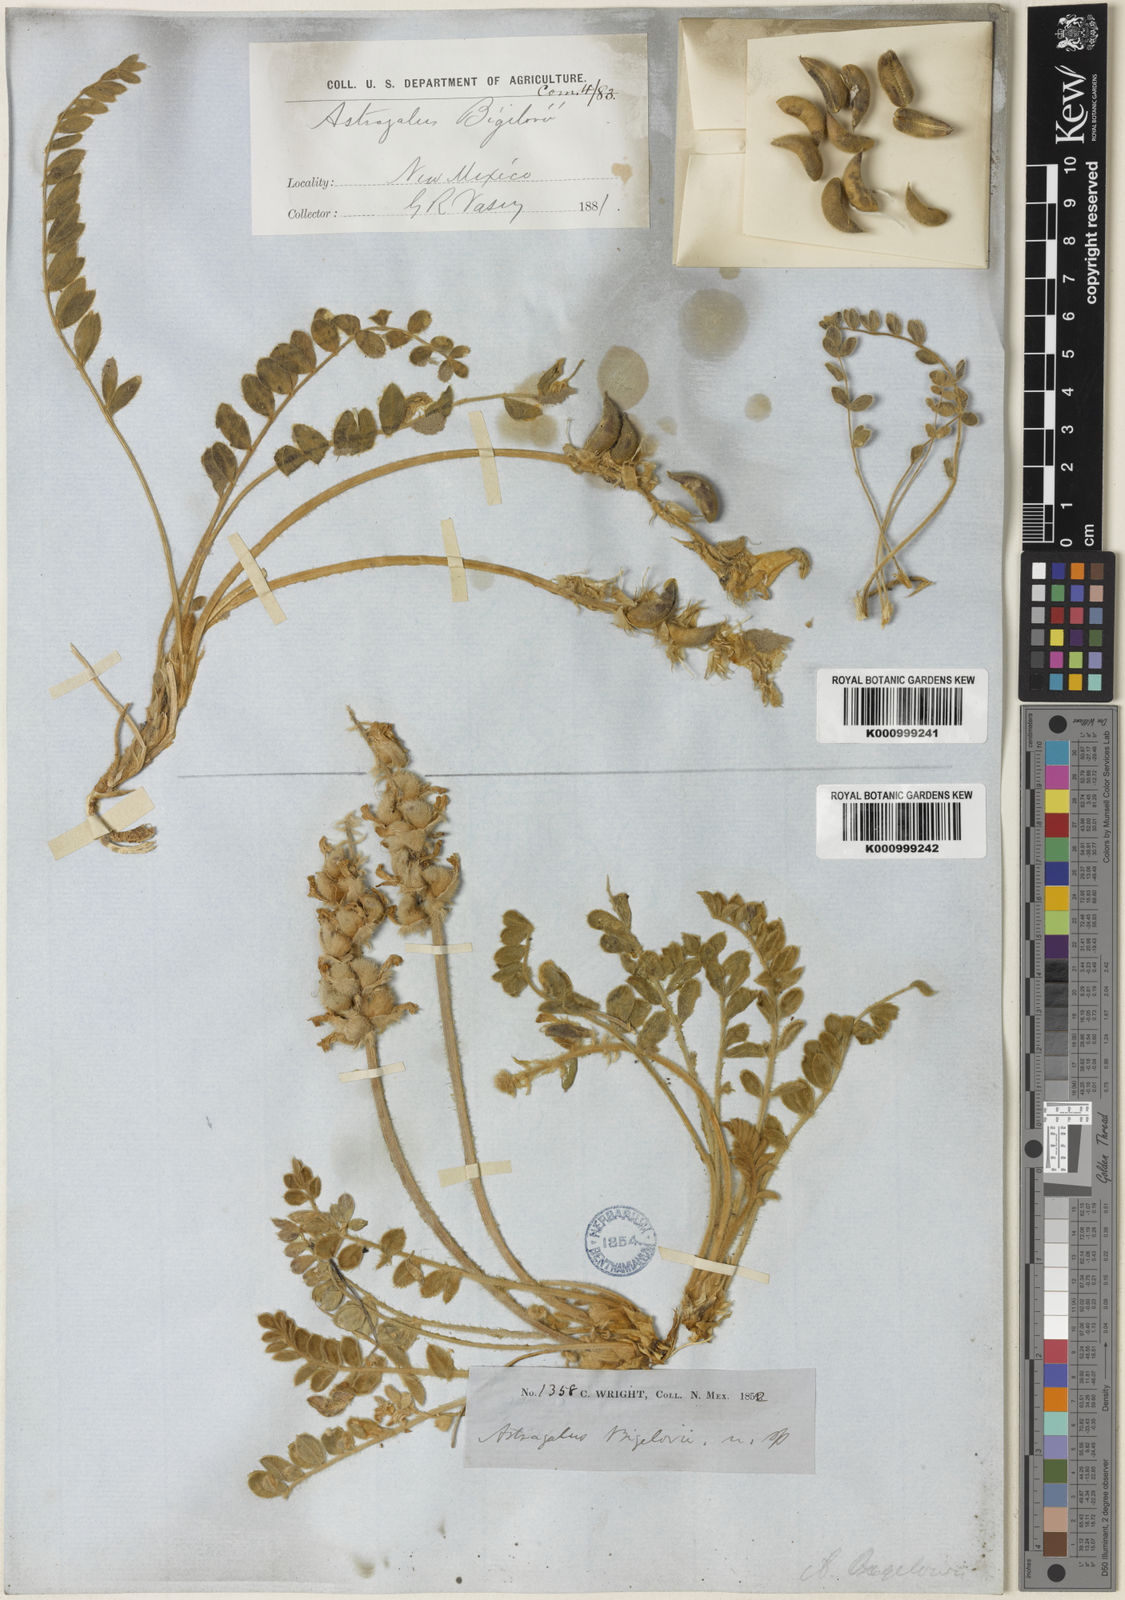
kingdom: Plantae
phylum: Tracheophyta
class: Magnoliopsida
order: Fabales
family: Fabaceae
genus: Astragalus
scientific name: Astragalus
